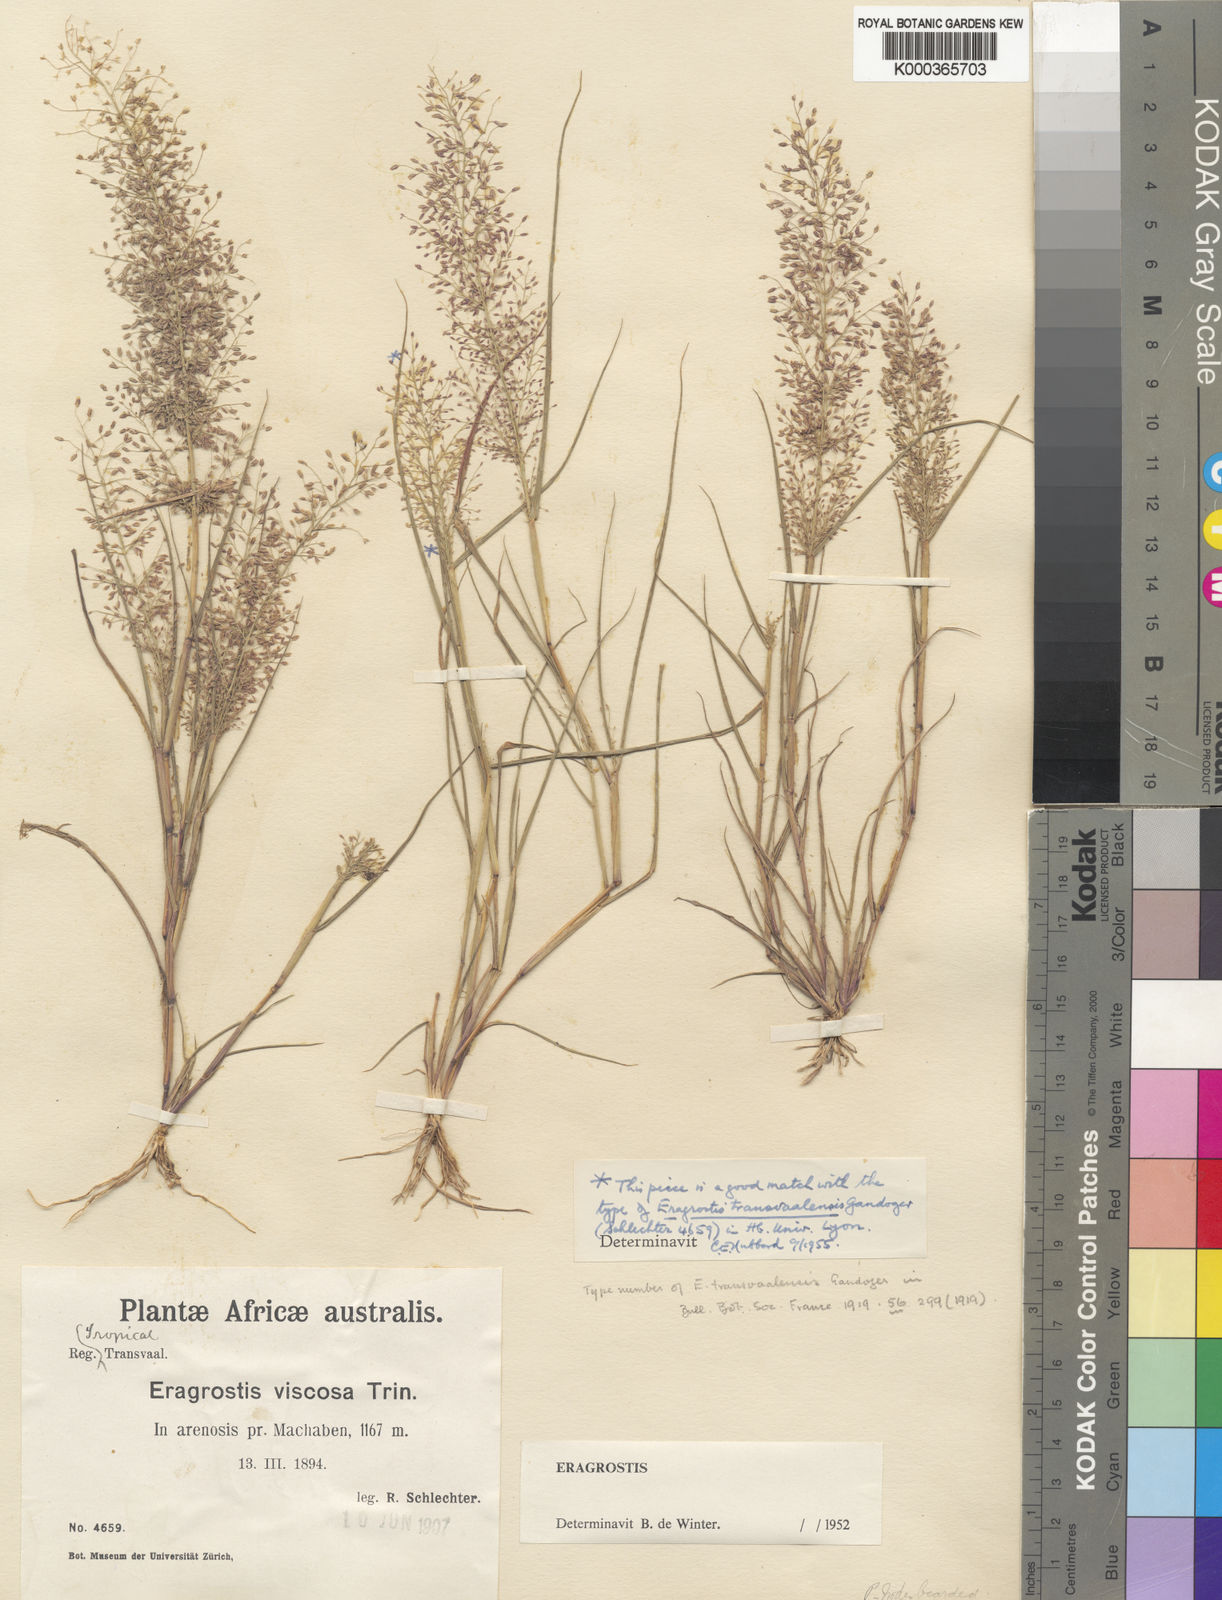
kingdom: Plantae
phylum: Tracheophyta
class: Liliopsida
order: Poales
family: Poaceae
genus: Eragrostis
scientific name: Eragrostis viscosa
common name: Sticky love grass
